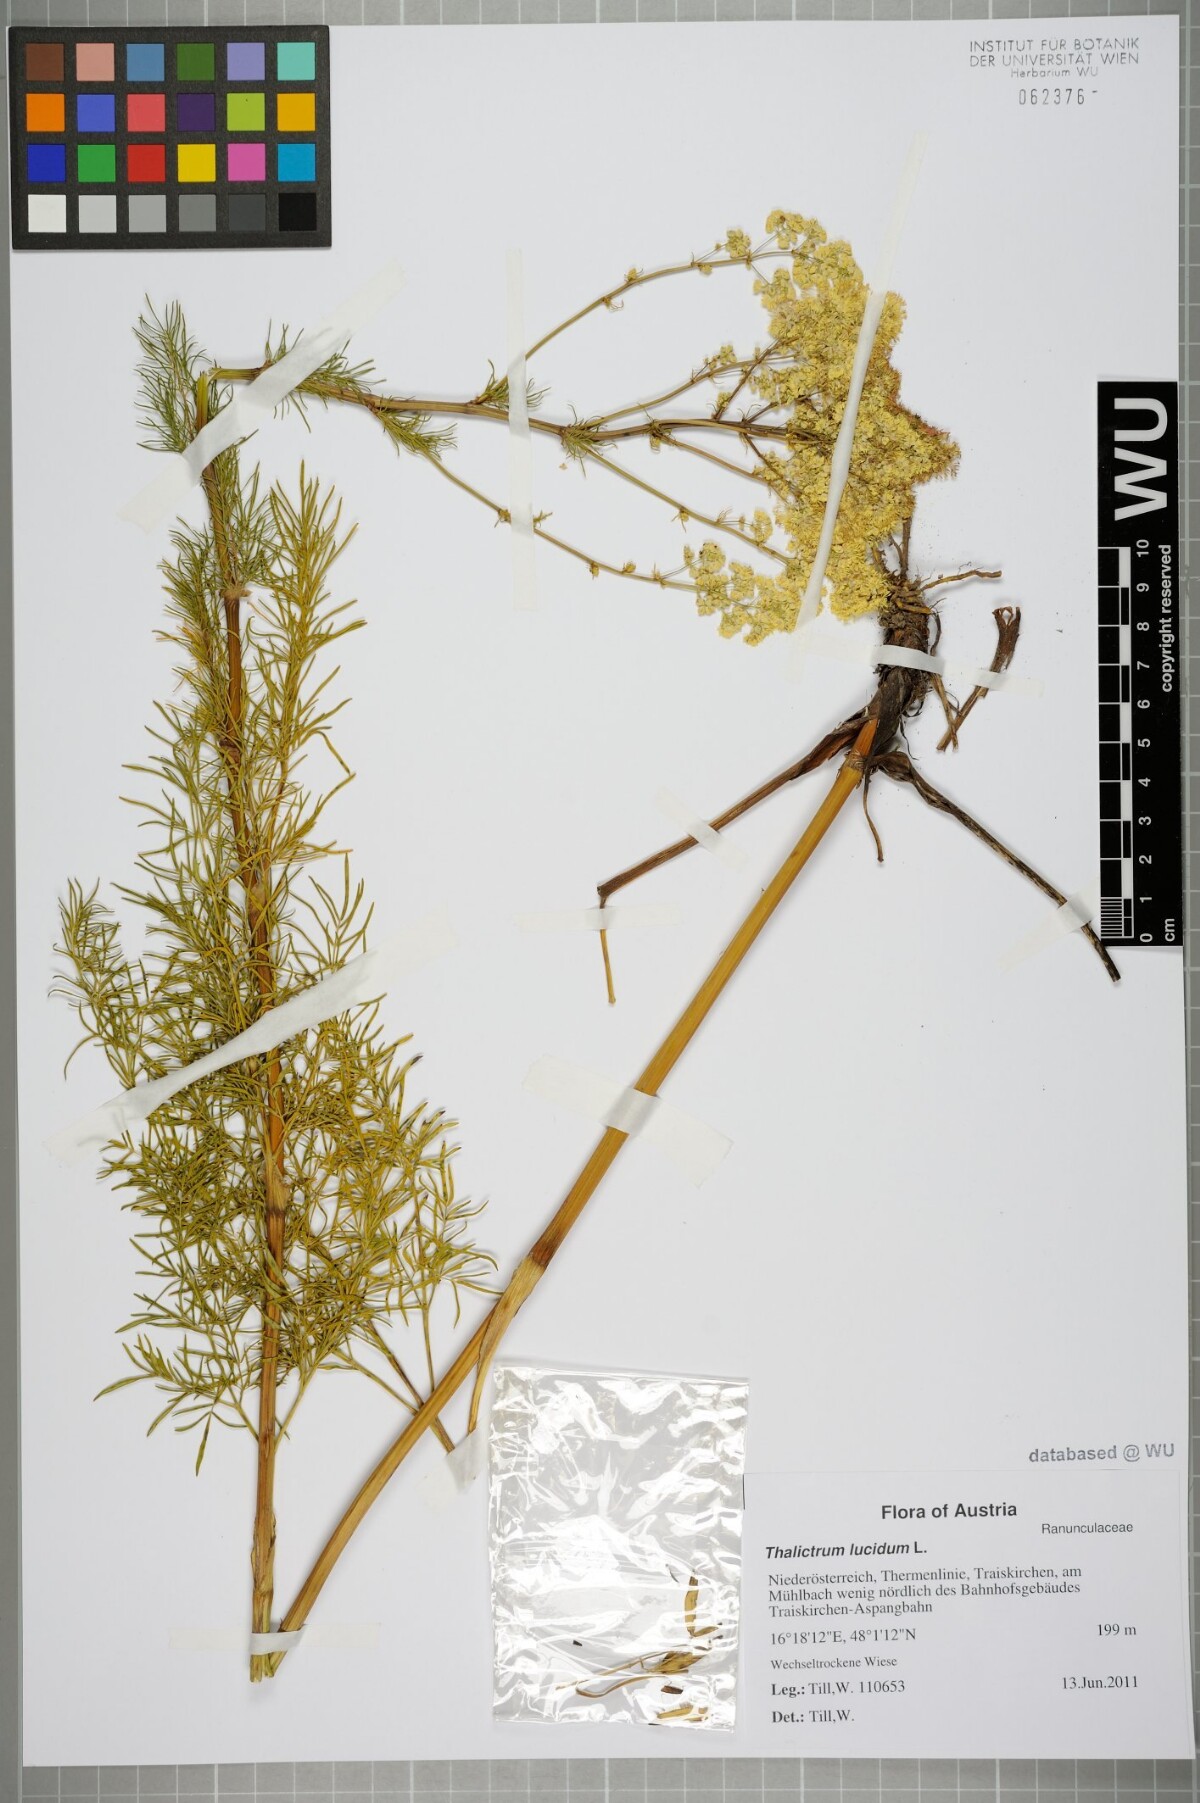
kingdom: Plantae
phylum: Tracheophyta
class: Magnoliopsida
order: Ranunculales
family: Ranunculaceae
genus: Thalictrum
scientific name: Thalictrum lucidum
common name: Shining meadow-rue
